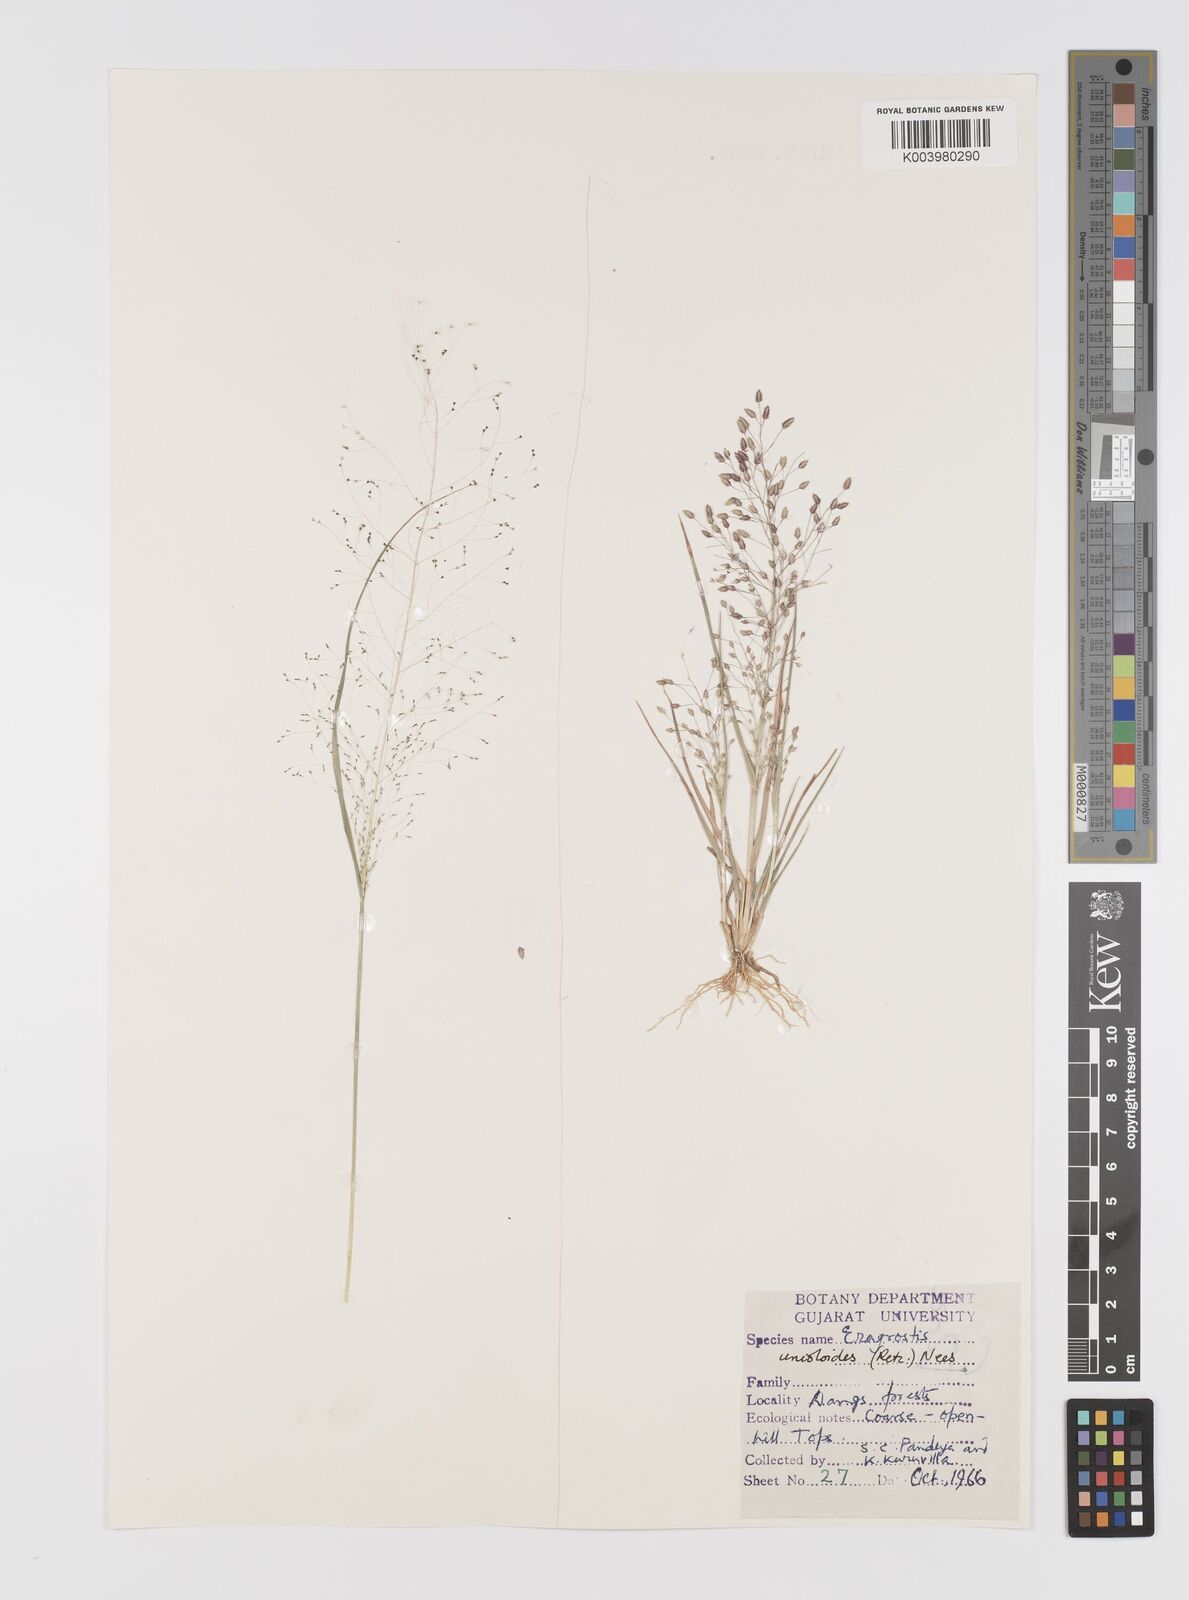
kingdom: Plantae
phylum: Tracheophyta
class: Liliopsida
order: Poales
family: Poaceae
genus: Eragrostis
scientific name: Eragrostis unioloides
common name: Chinese lovegrass
